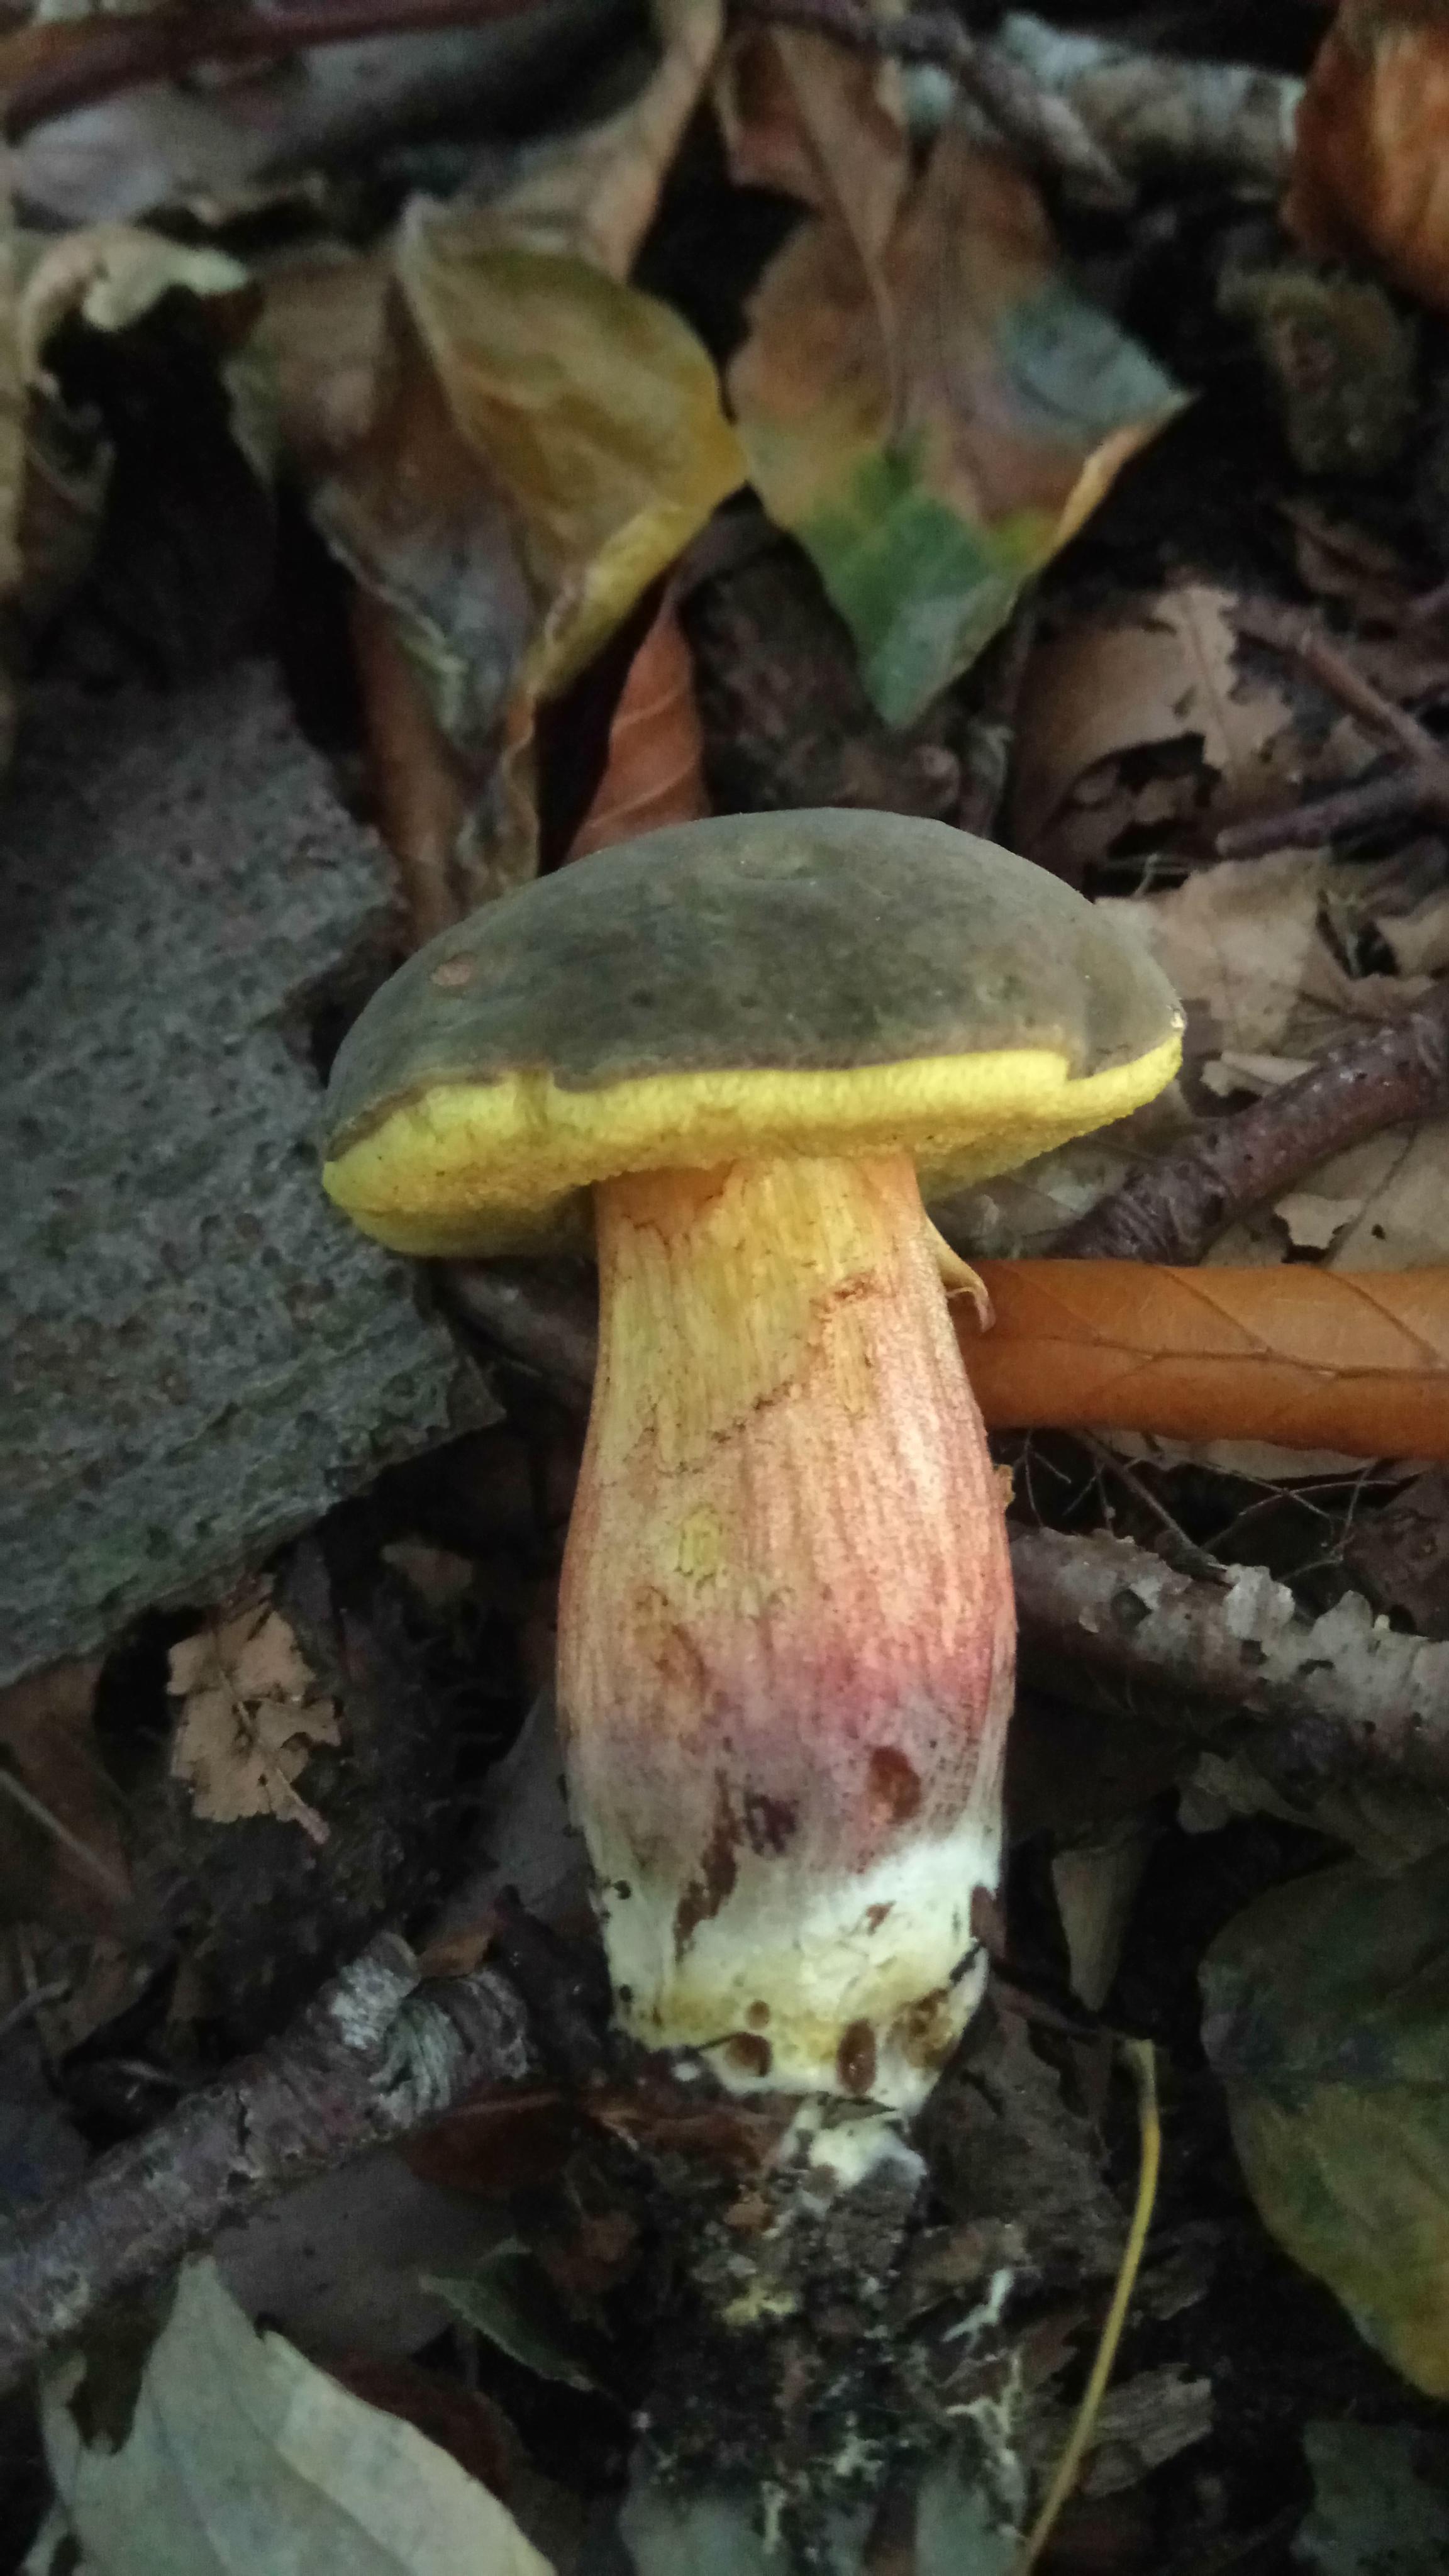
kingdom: Fungi
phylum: Basidiomycota
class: Agaricomycetes
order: Boletales
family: Boletaceae
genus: Xerocomellus
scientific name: Xerocomellus pruinatus
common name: dugget rørhat
